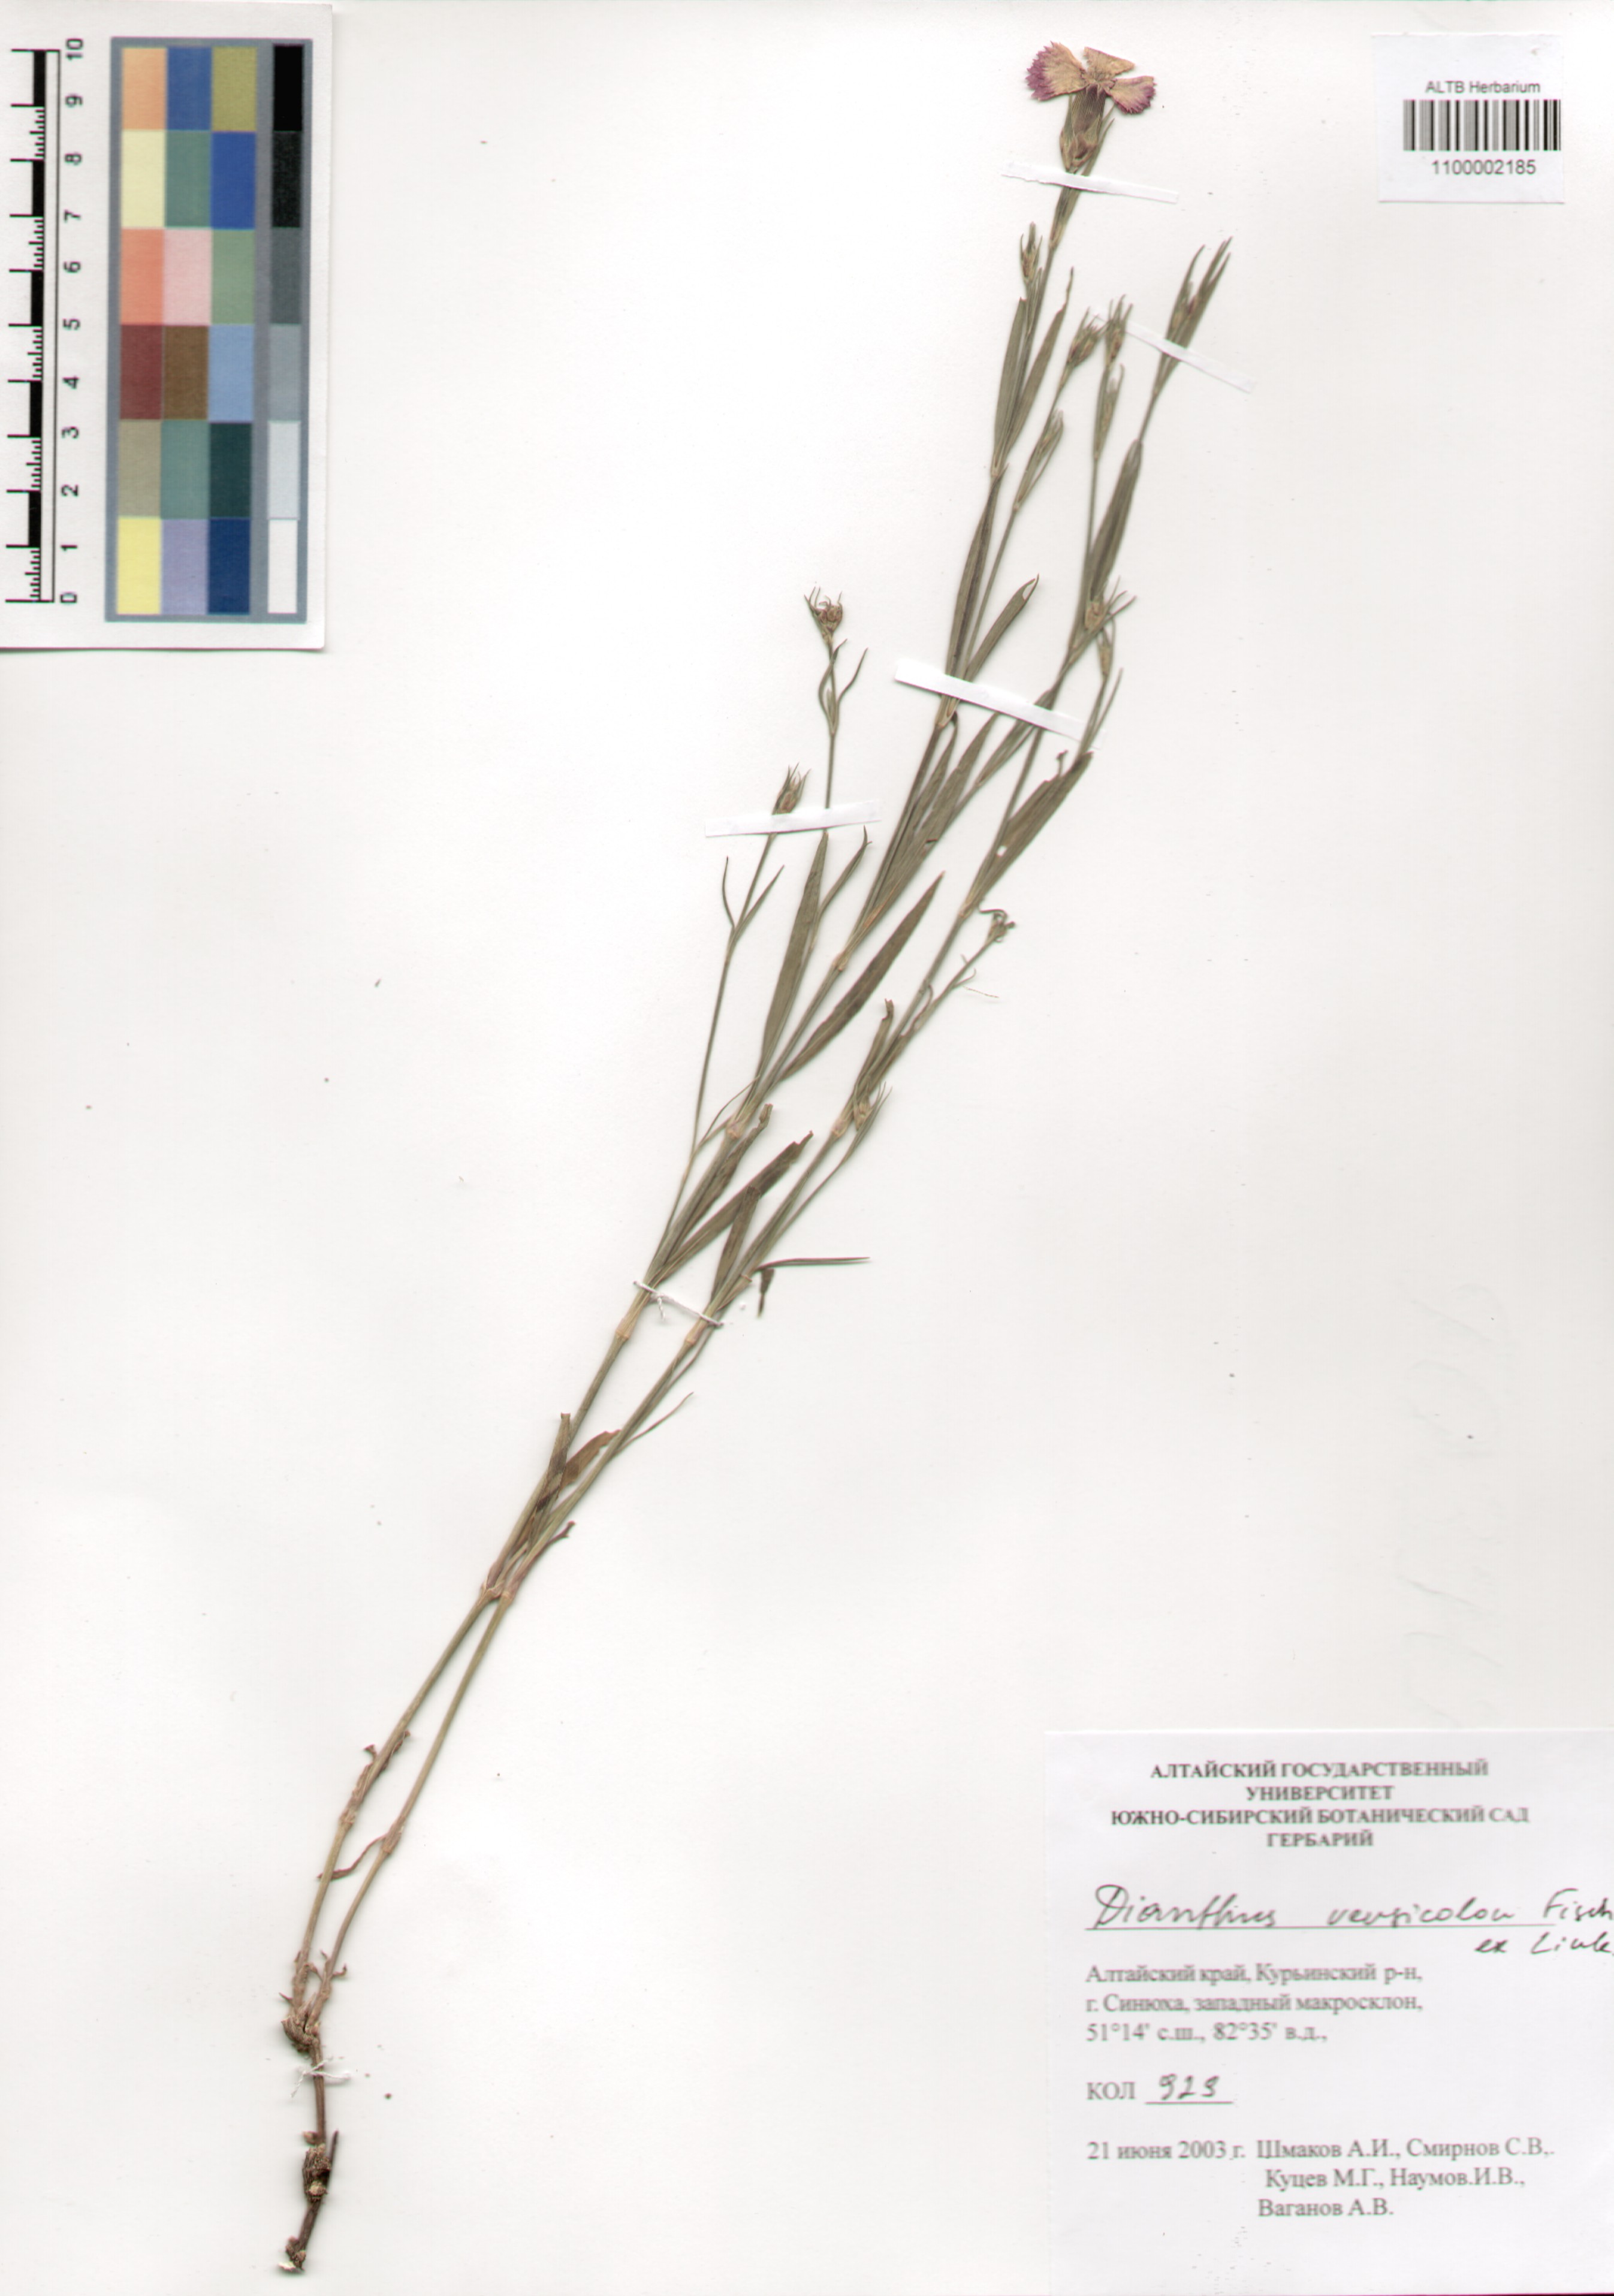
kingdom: Plantae
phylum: Tracheophyta
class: Magnoliopsida
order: Caryophyllales
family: Caryophyllaceae
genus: Dianthus
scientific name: Dianthus chinensis
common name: Rainbow pink
